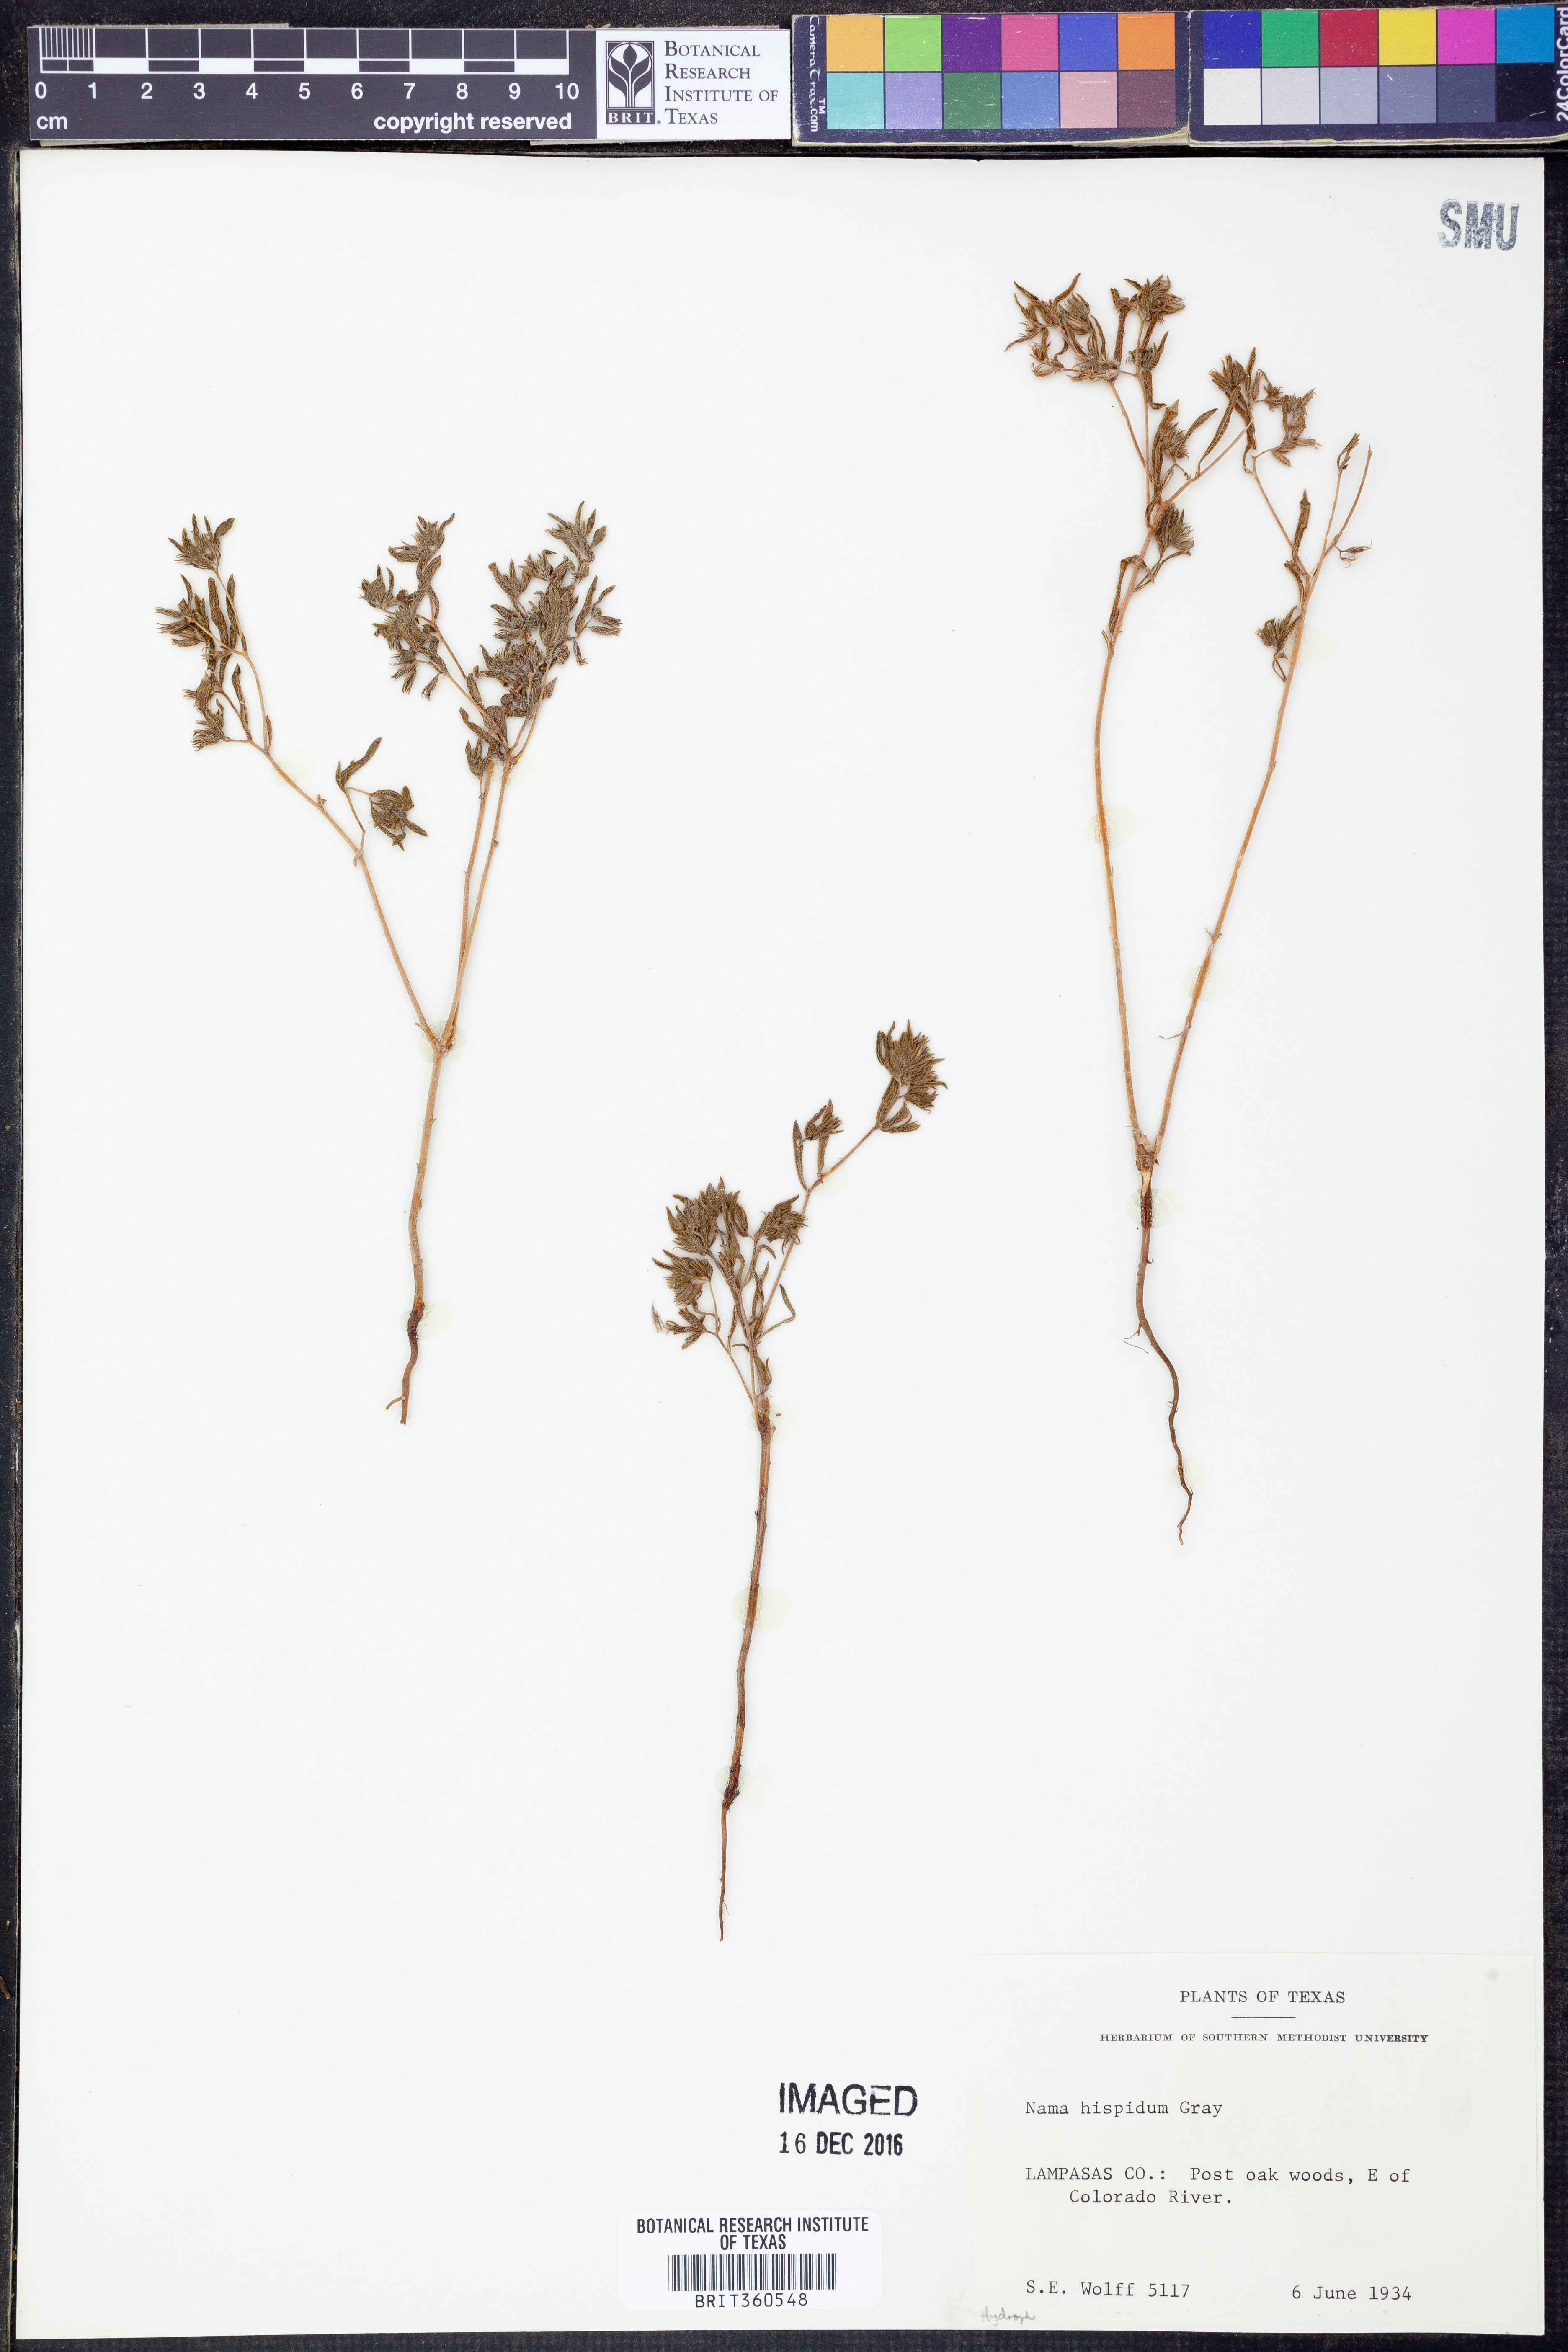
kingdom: Plantae
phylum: Tracheophyta
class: Magnoliopsida
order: Boraginales
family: Namaceae
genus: Nama
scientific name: Nama hispida
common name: Bristly nama
